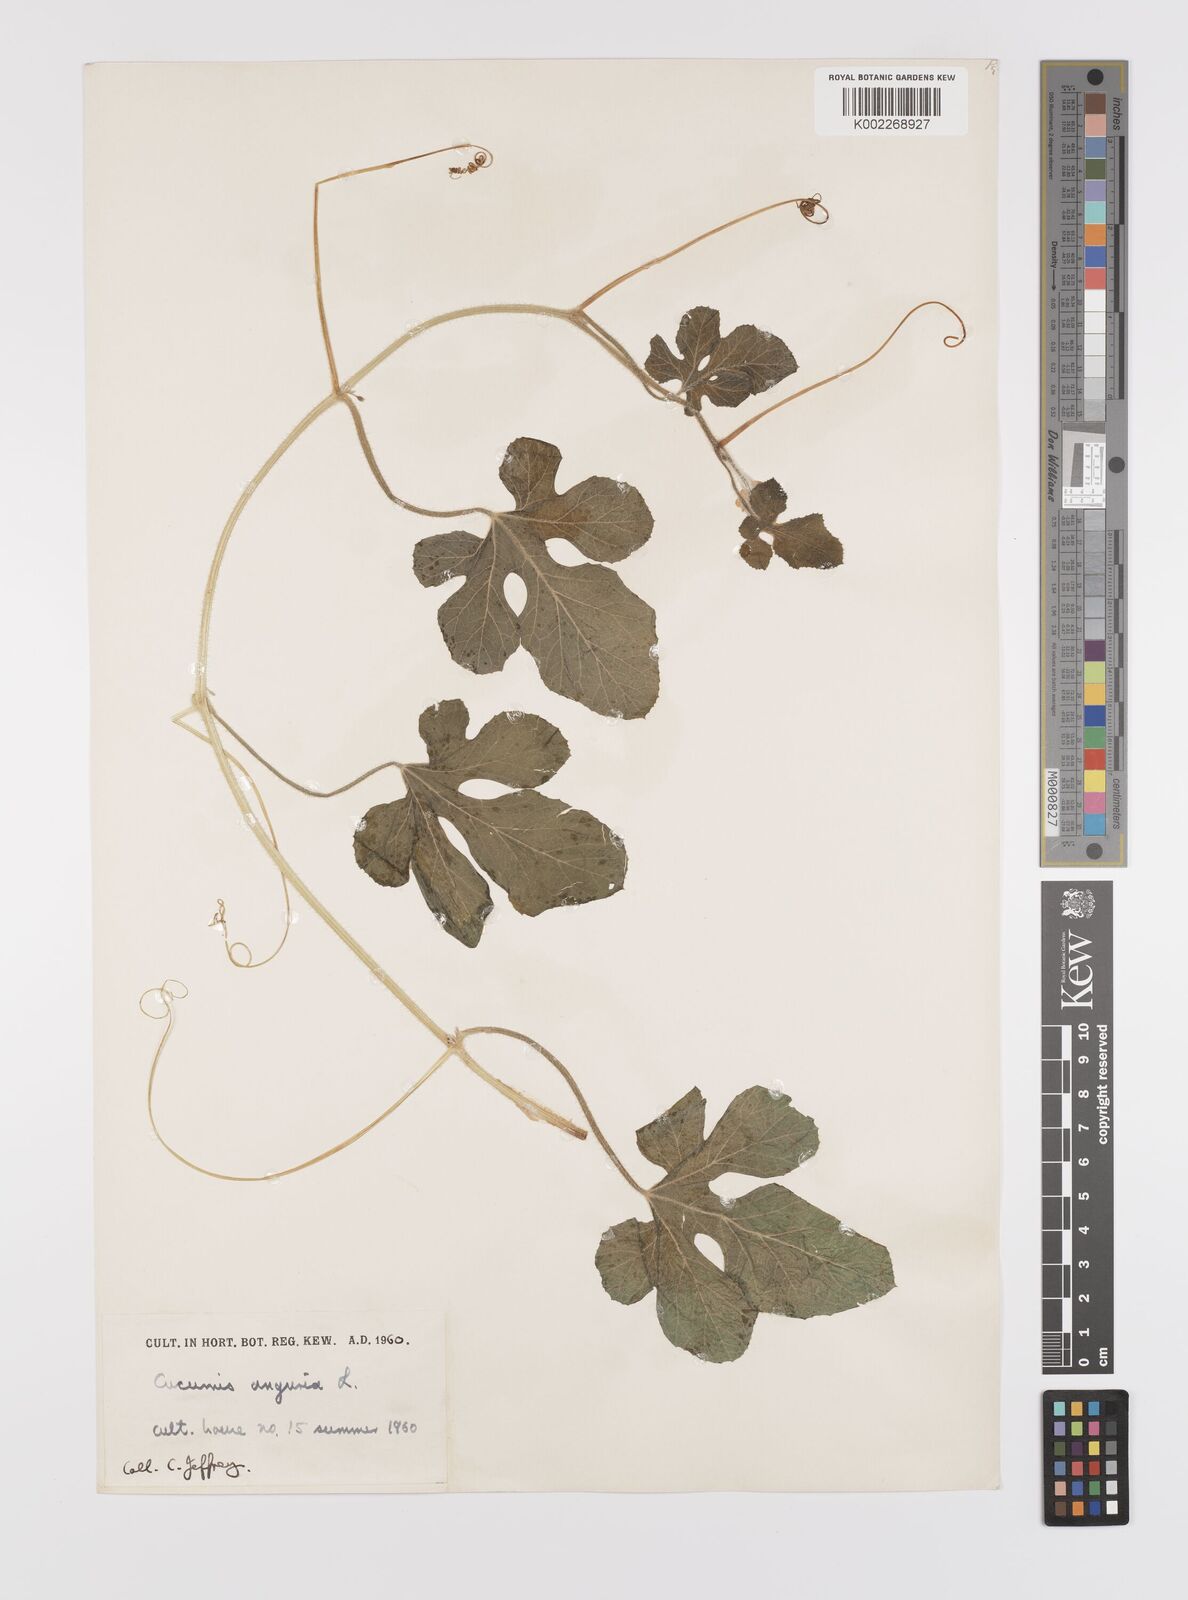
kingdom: Plantae
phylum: Tracheophyta
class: Magnoliopsida
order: Cucurbitales
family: Cucurbitaceae
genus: Cucumis
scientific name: Cucumis anguria
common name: West indian gherkin
